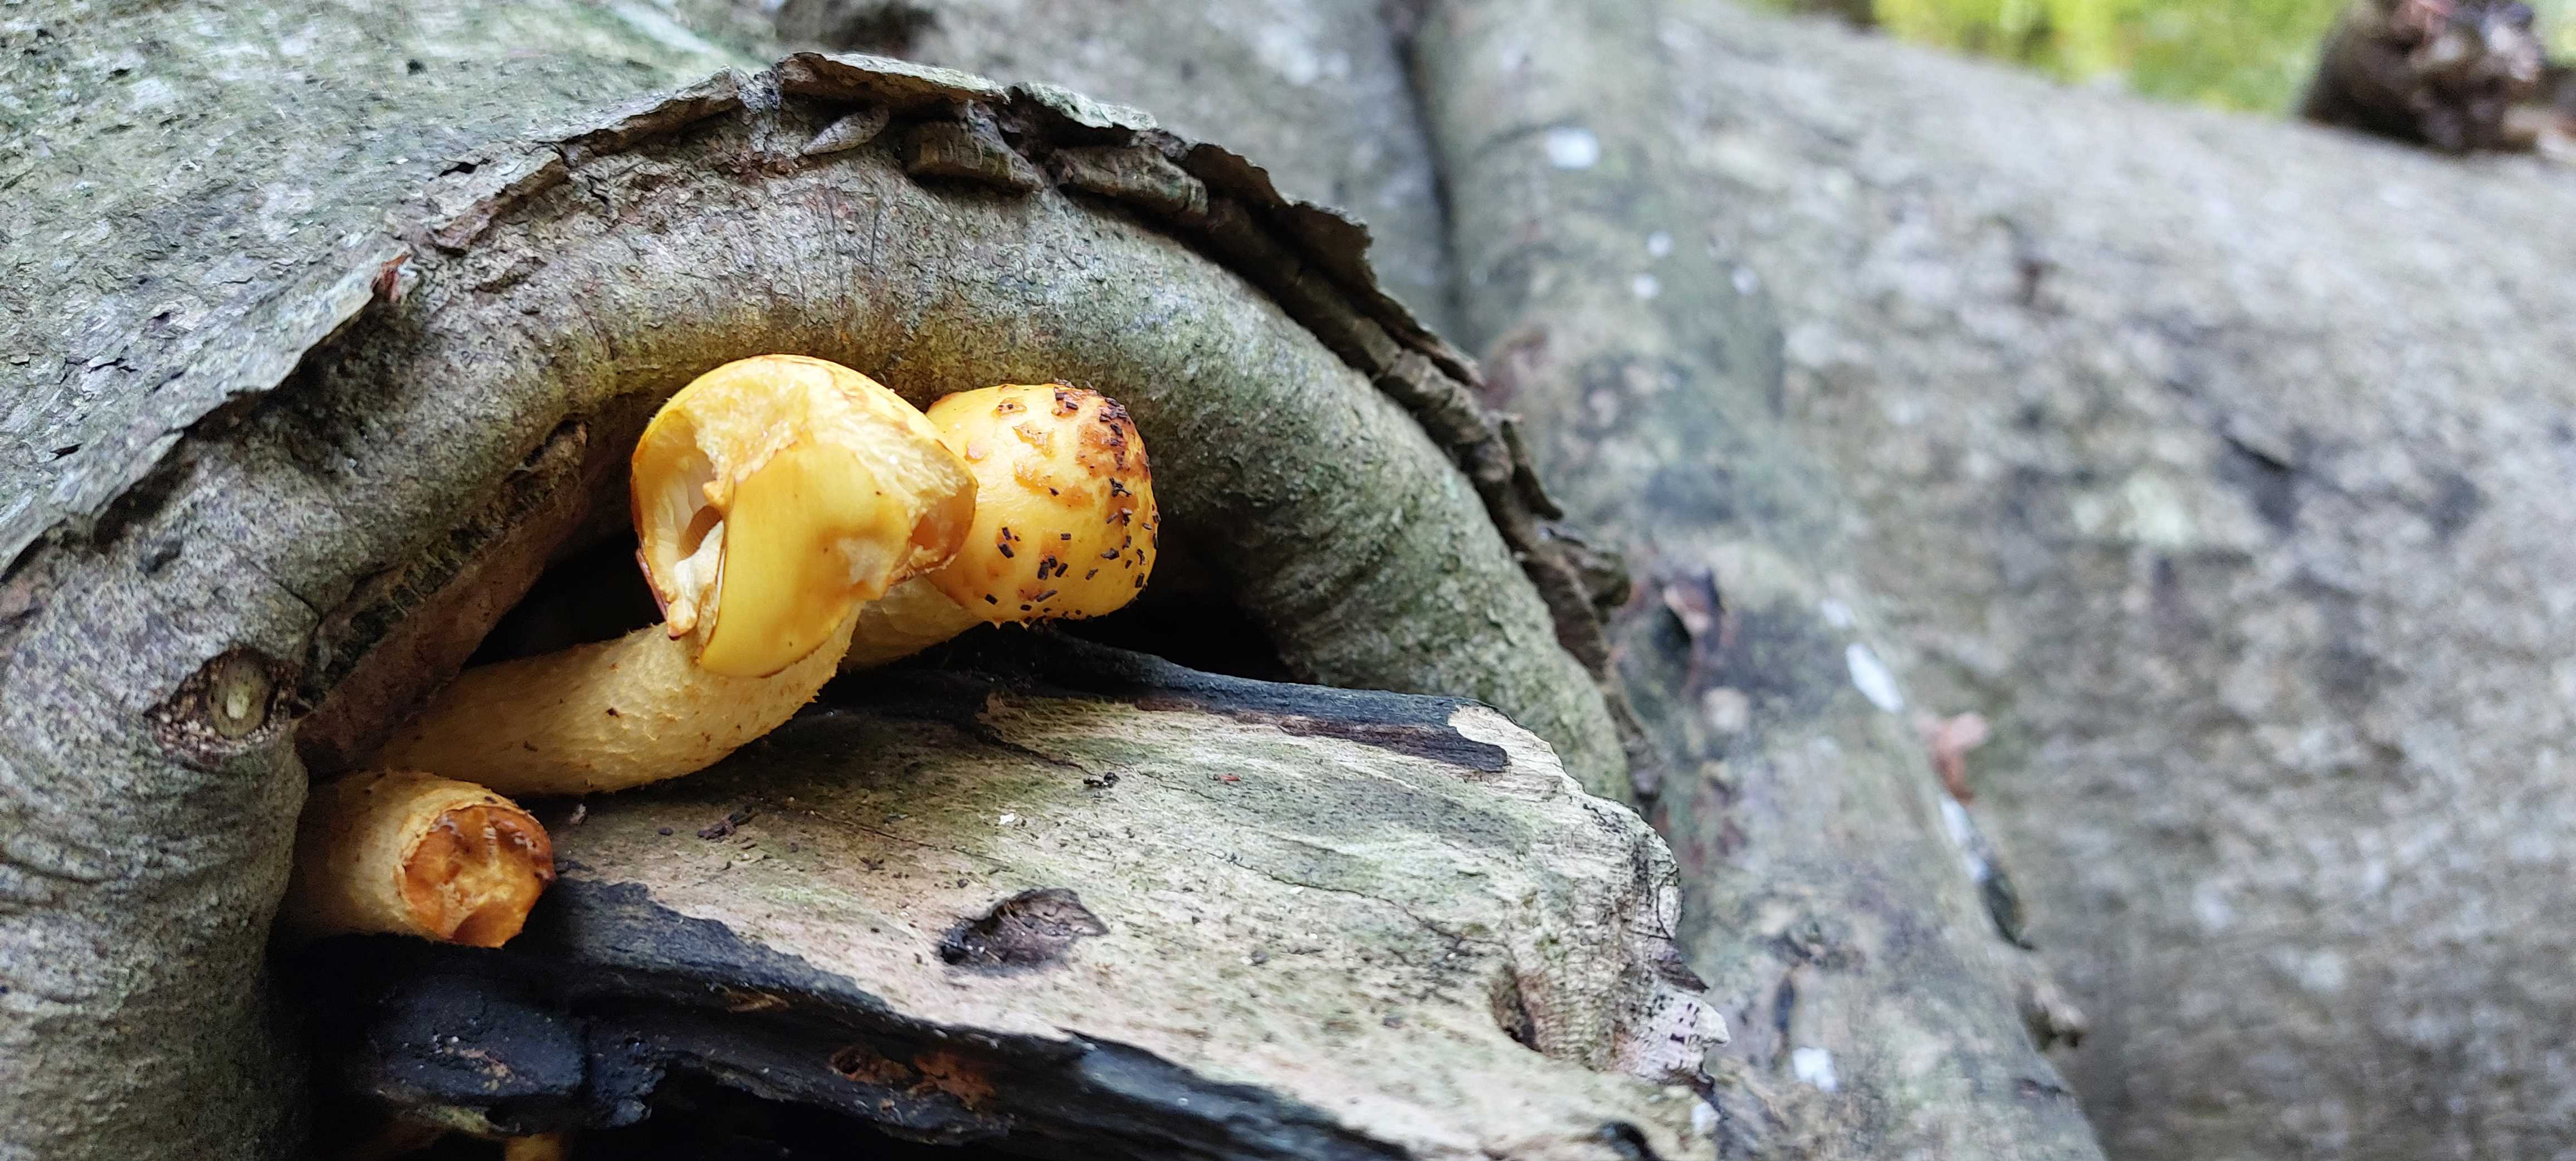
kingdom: Fungi
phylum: Basidiomycota
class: Agaricomycetes
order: Agaricales
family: Strophariaceae
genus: Pholiota
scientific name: Pholiota adiposa
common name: højtsiddende skælhat
